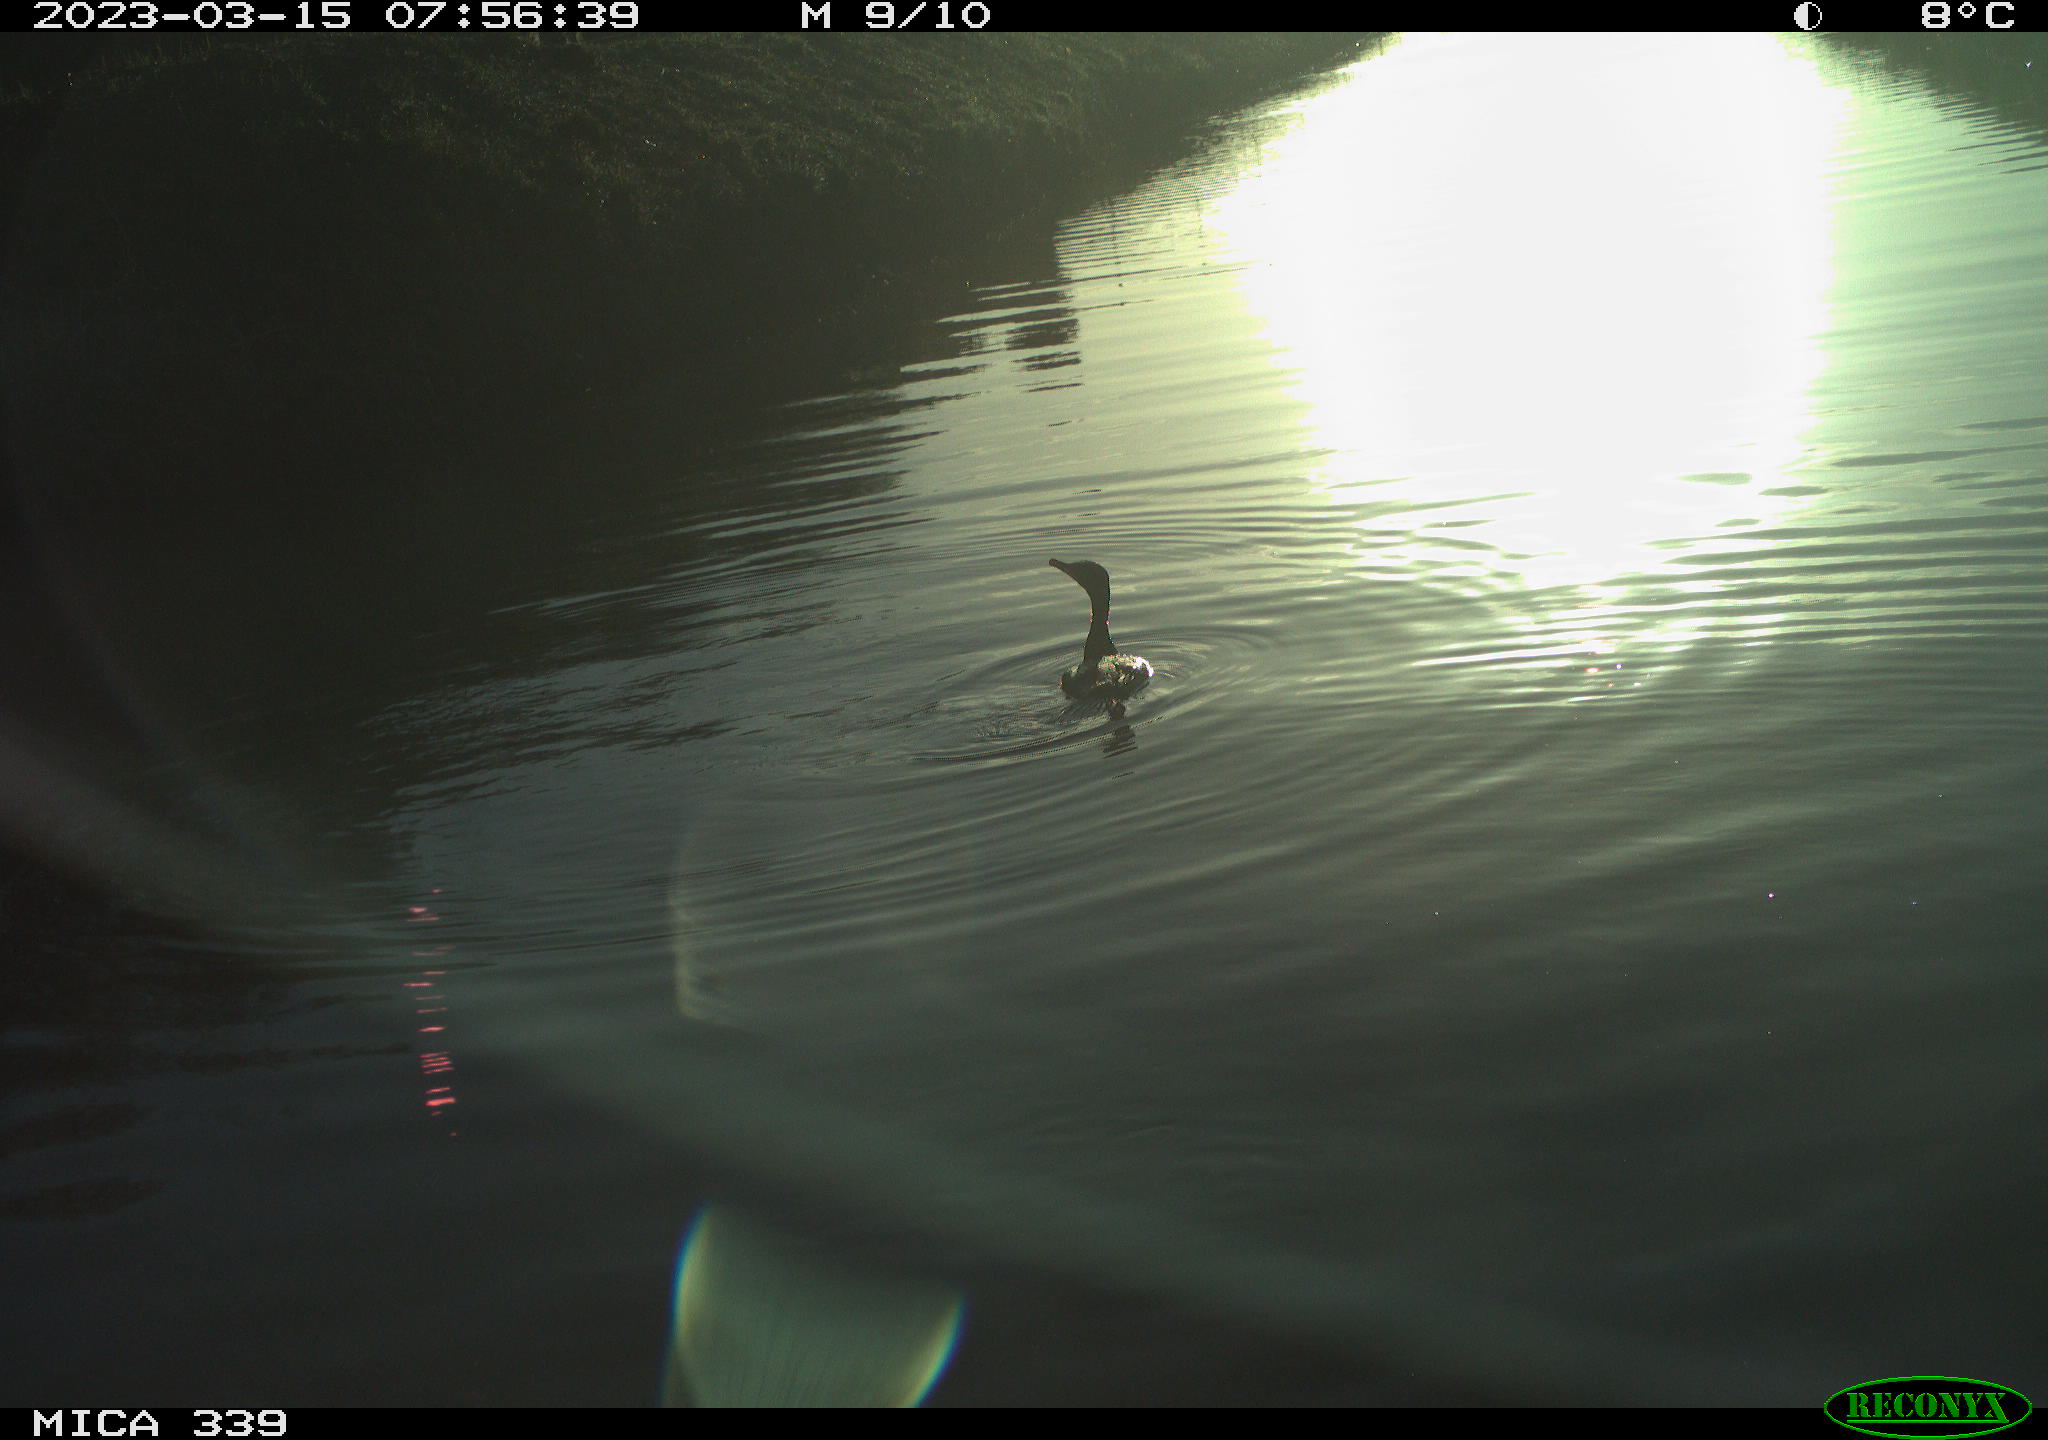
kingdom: Animalia
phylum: Chordata
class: Aves
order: Suliformes
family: Phalacrocoracidae
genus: Phalacrocorax
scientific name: Phalacrocorax carbo
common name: Great cormorant
